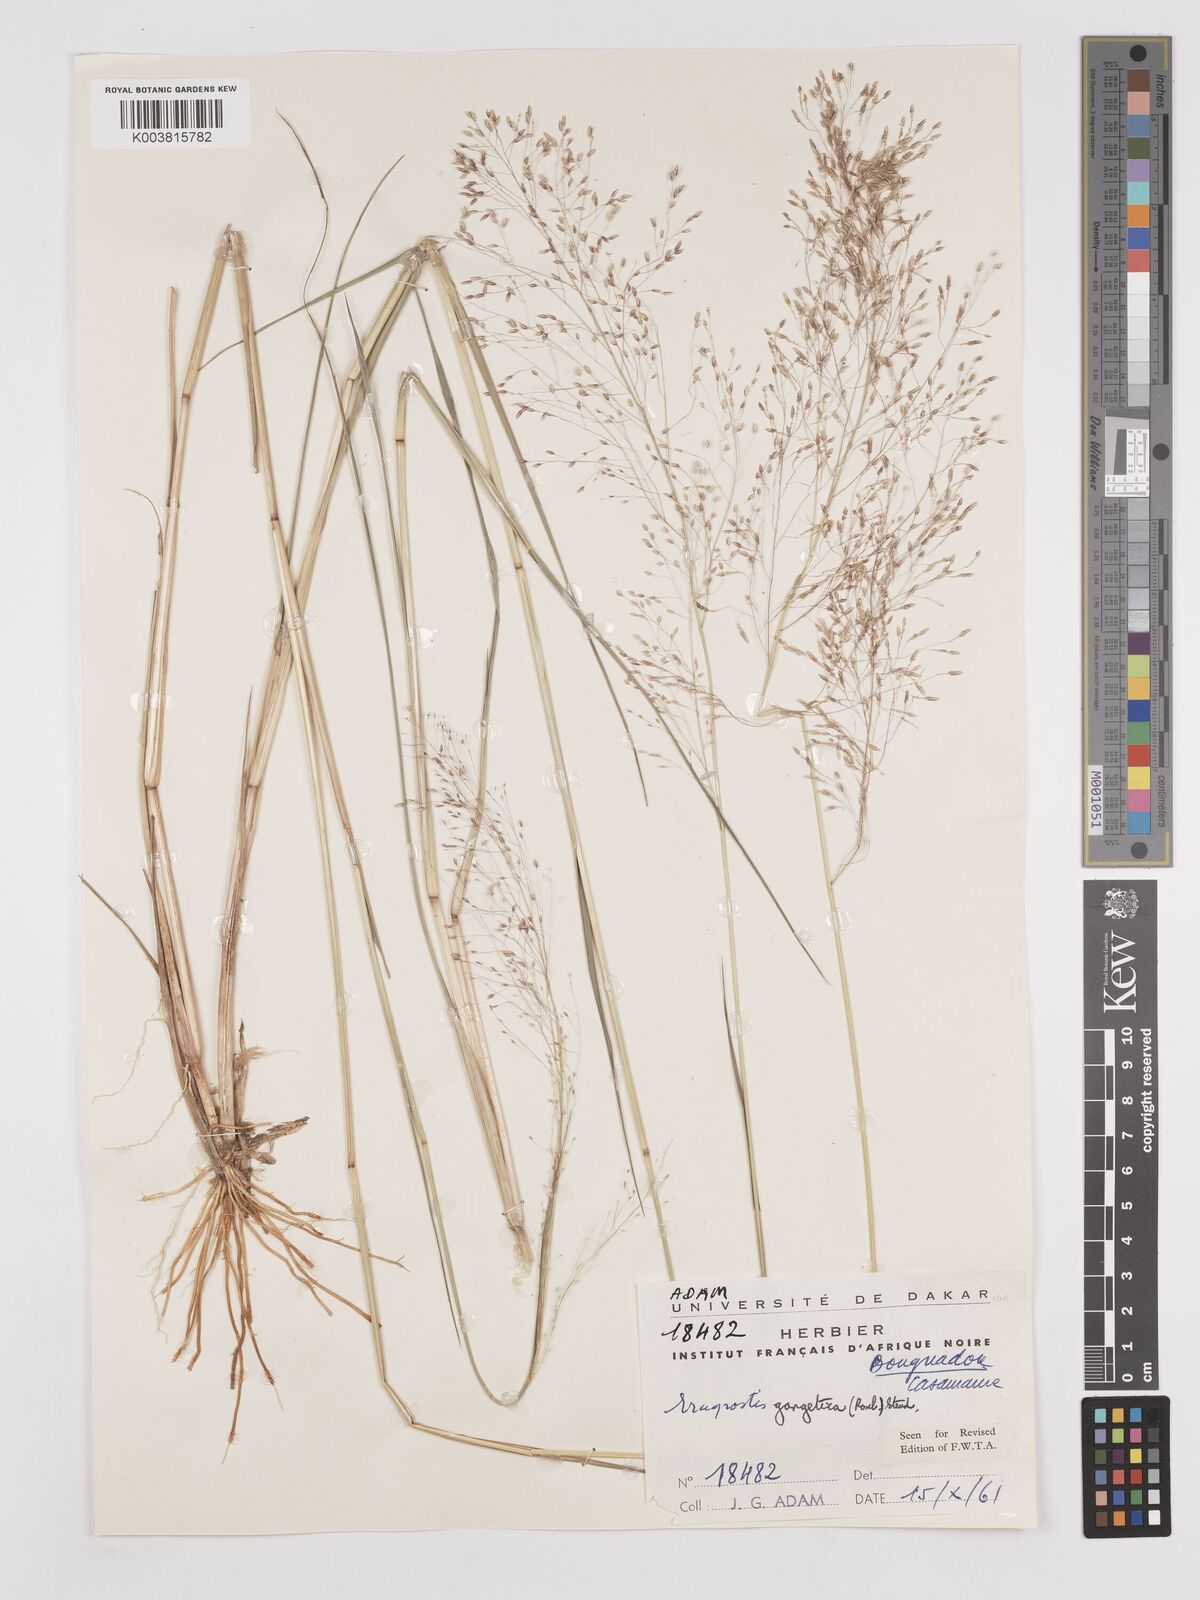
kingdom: Plantae
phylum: Tracheophyta
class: Liliopsida
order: Poales
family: Poaceae
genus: Eragrostis
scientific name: Eragrostis gangetica
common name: Slimflower lovegrass
